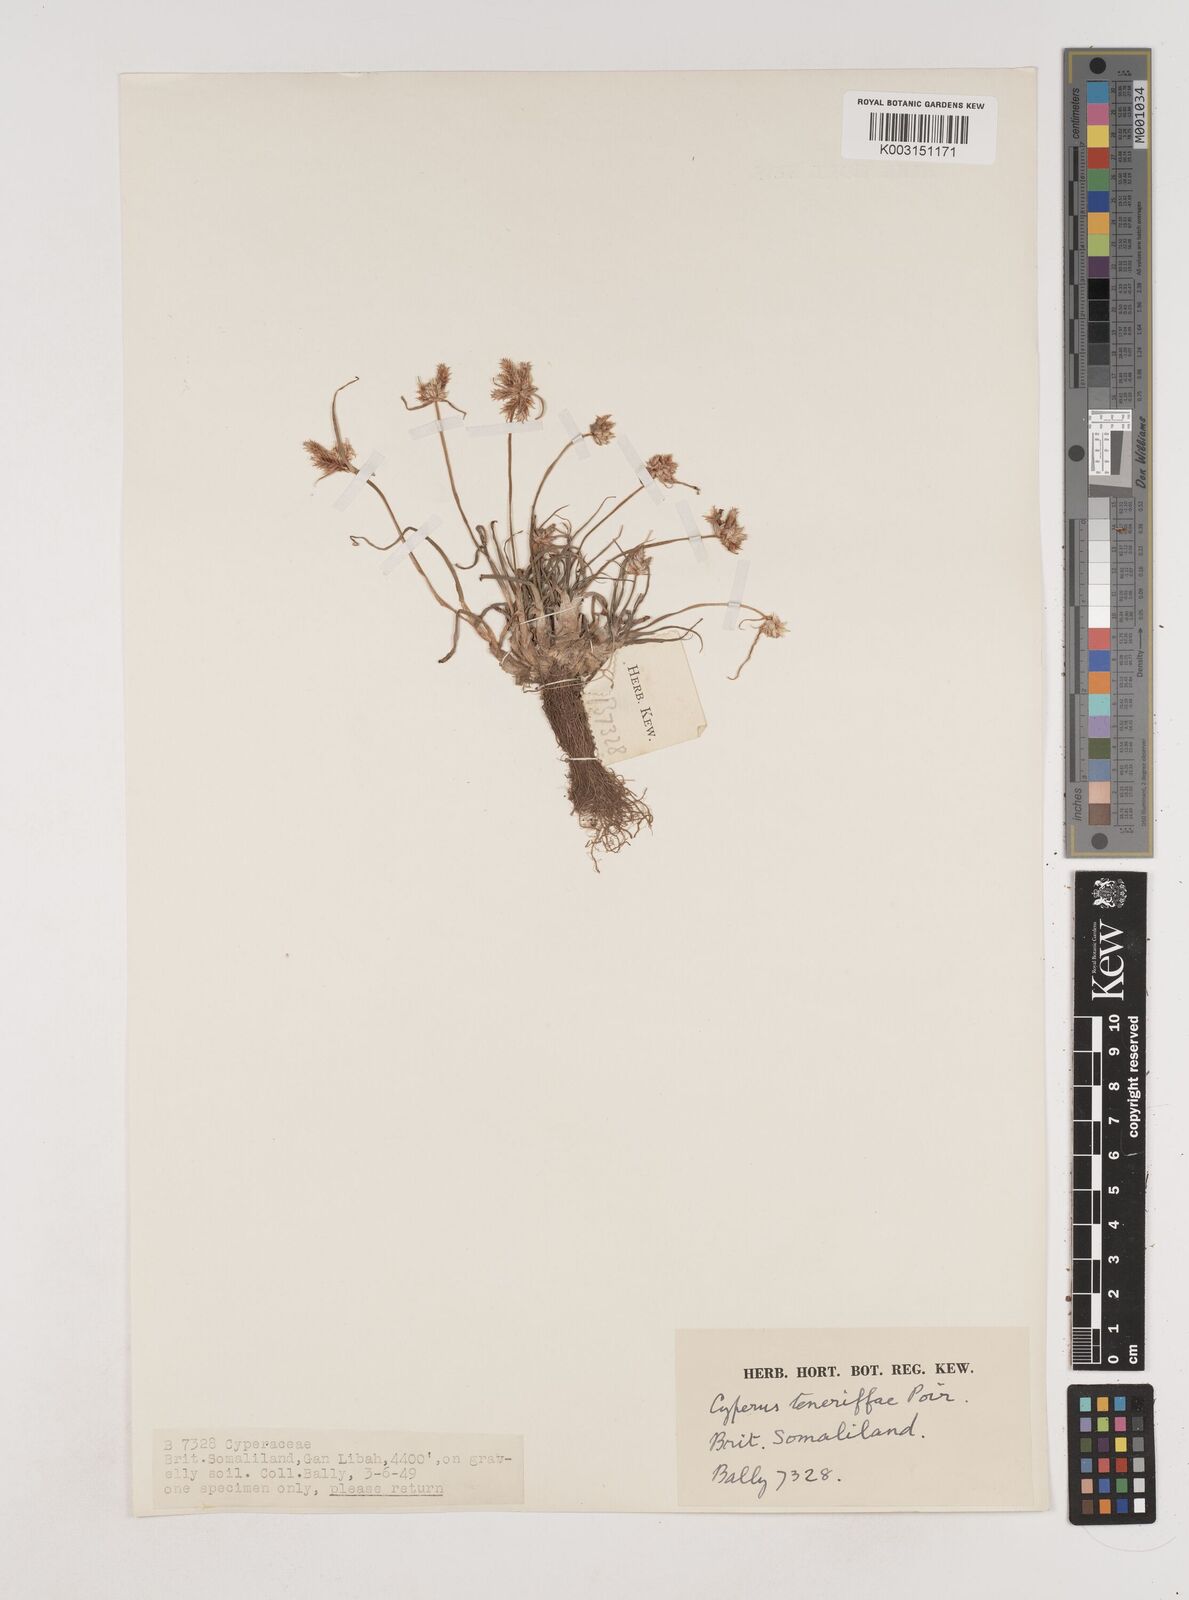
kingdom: Plantae
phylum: Tracheophyta
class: Liliopsida
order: Poales
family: Cyperaceae
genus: Cyperus
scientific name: Cyperus rubicundus
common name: Coco-grass
